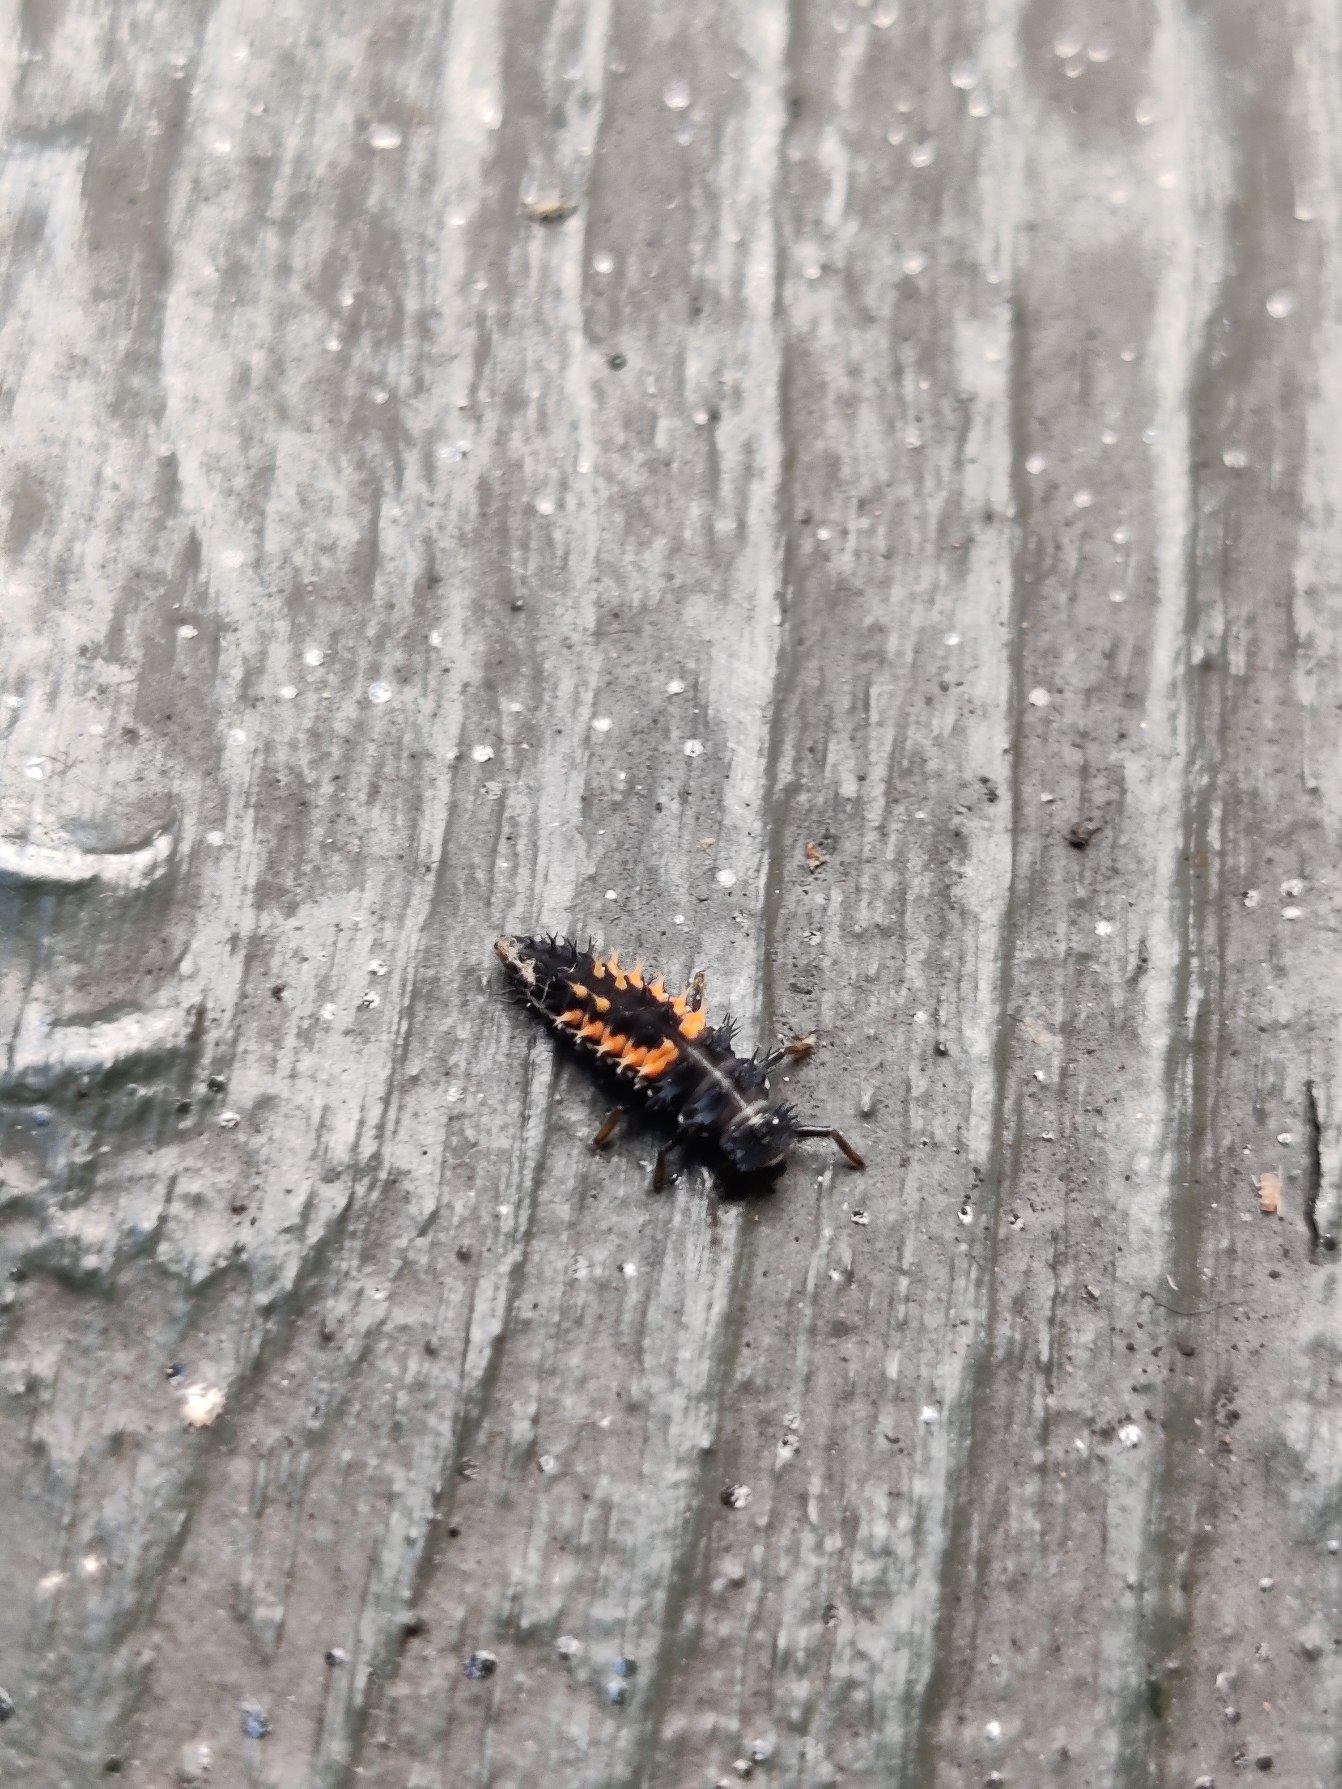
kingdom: Animalia
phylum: Arthropoda
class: Insecta
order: Coleoptera
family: Coccinellidae
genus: Harmonia
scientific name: Harmonia axyridis
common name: Harlekinmariehøne
